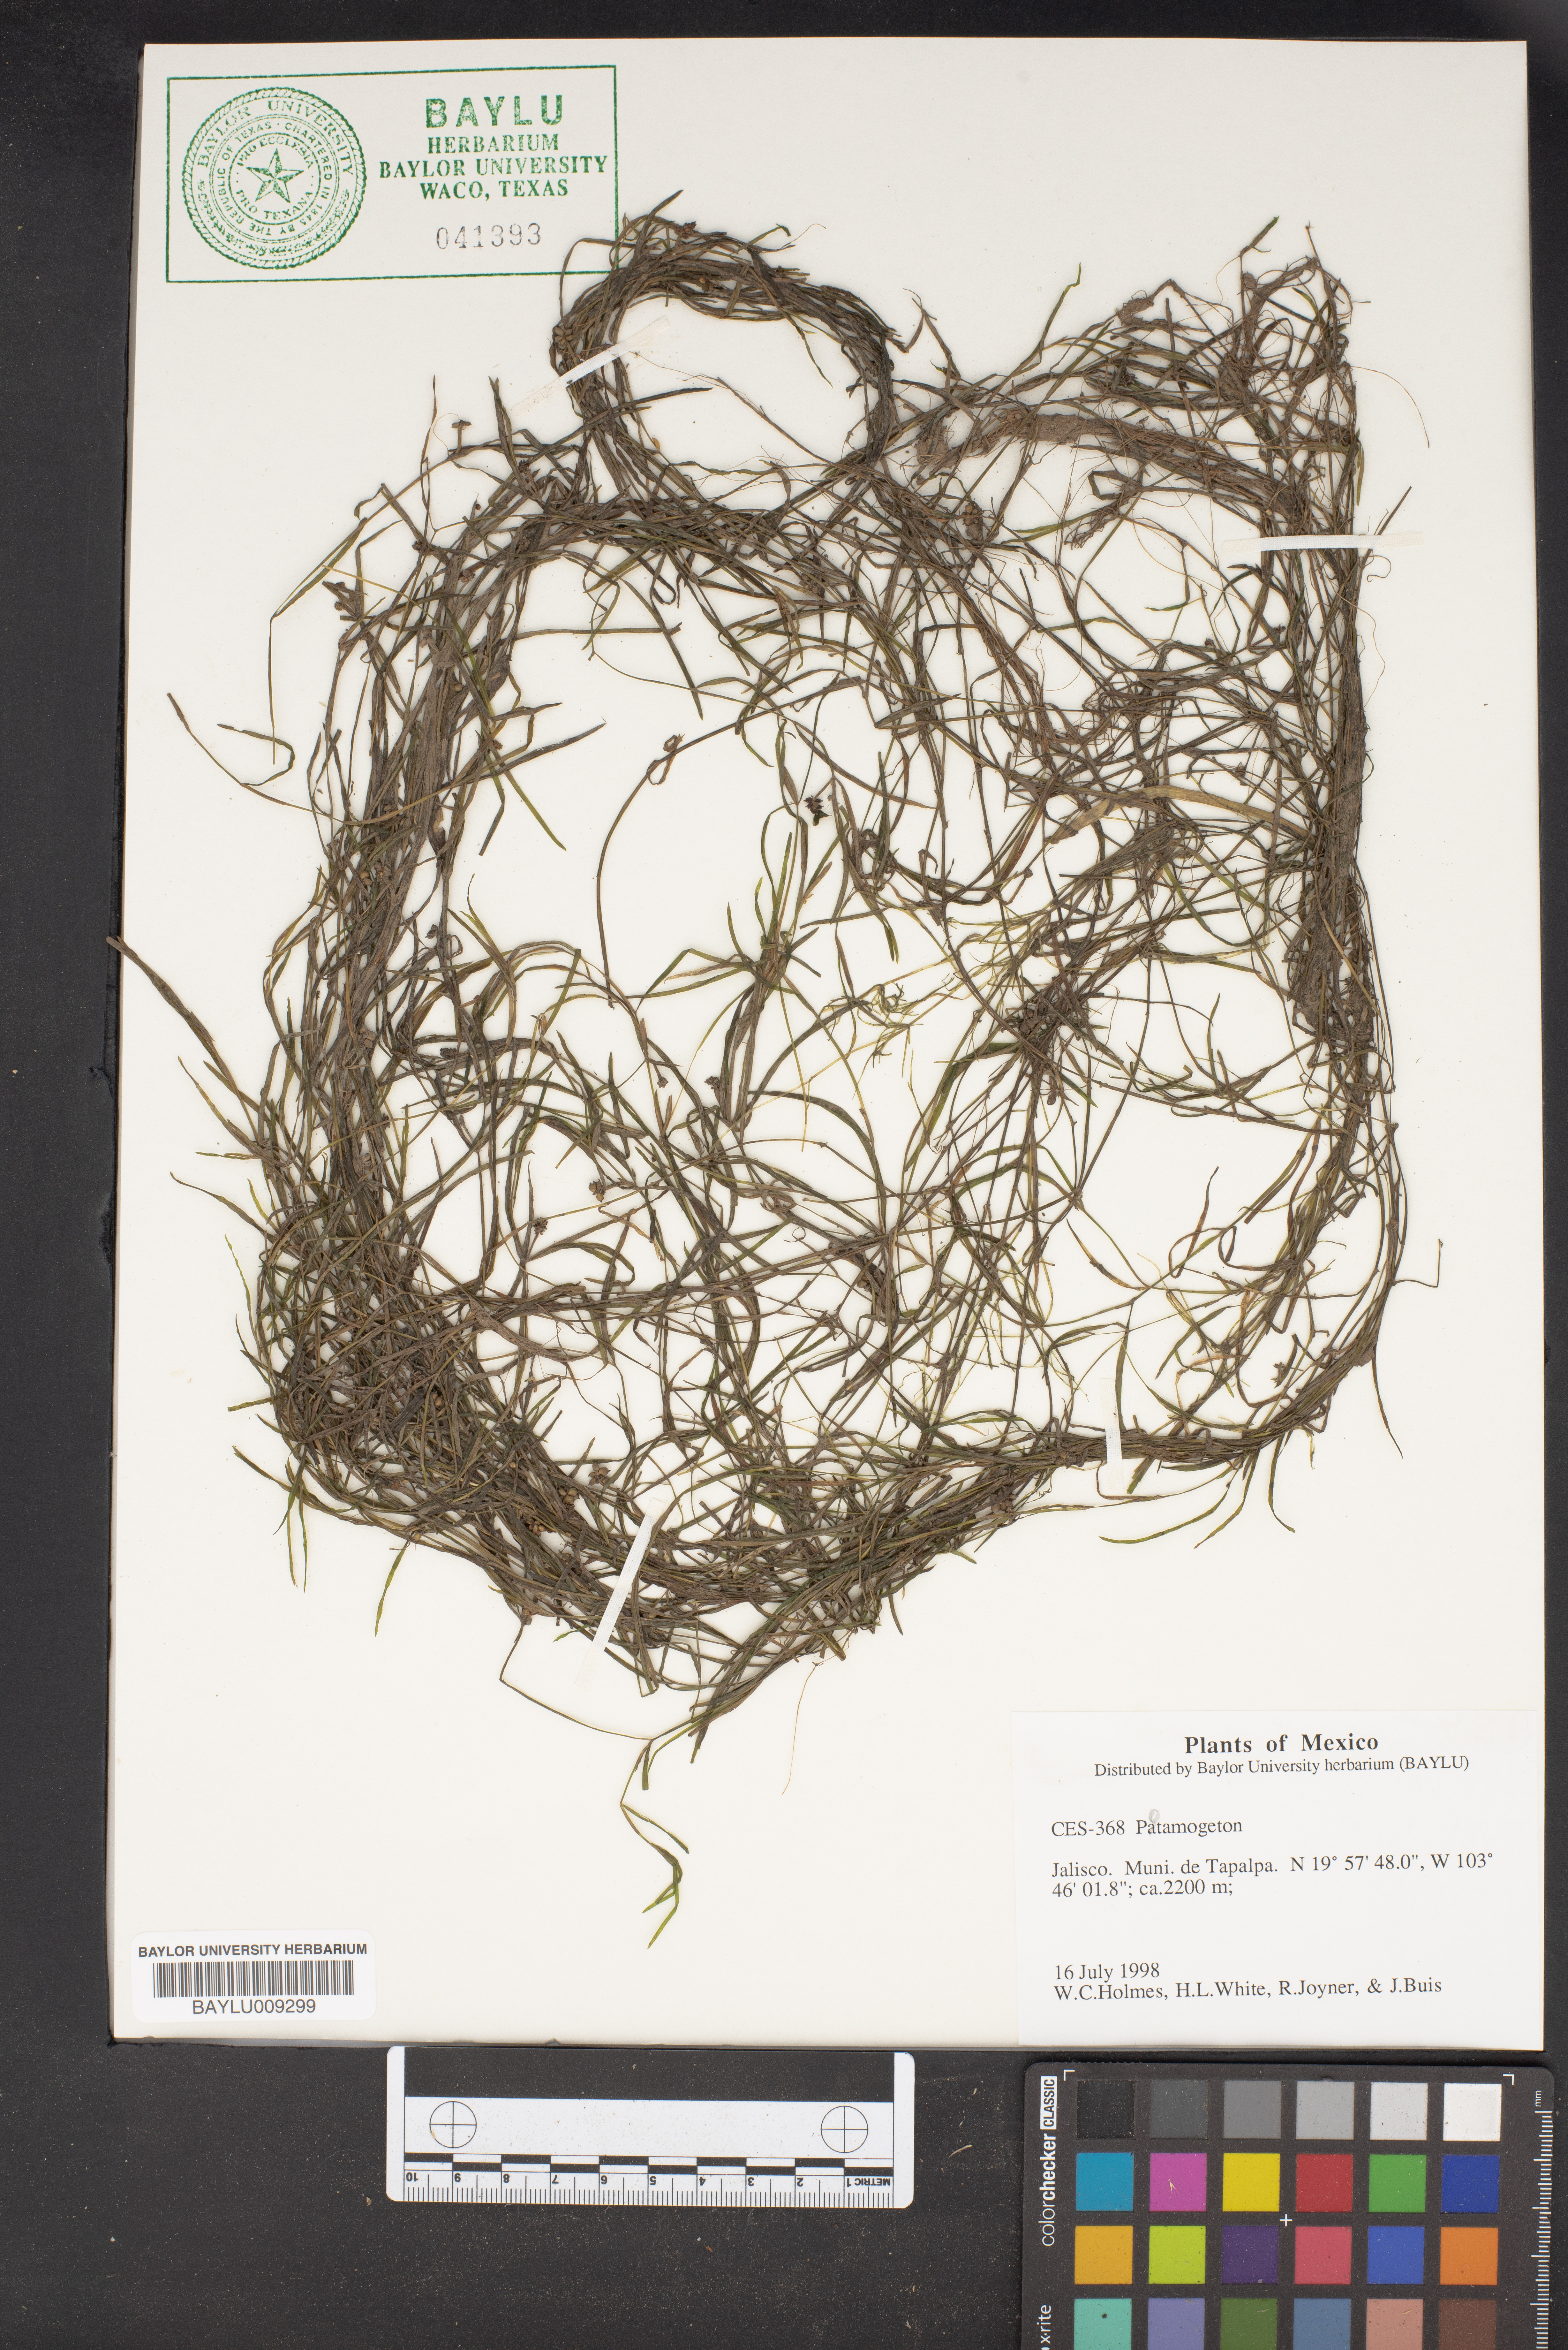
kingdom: Plantae
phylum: Tracheophyta
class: Liliopsida
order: Alismatales
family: Potamogetonaceae
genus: Potamogeton
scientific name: Potamogeton
